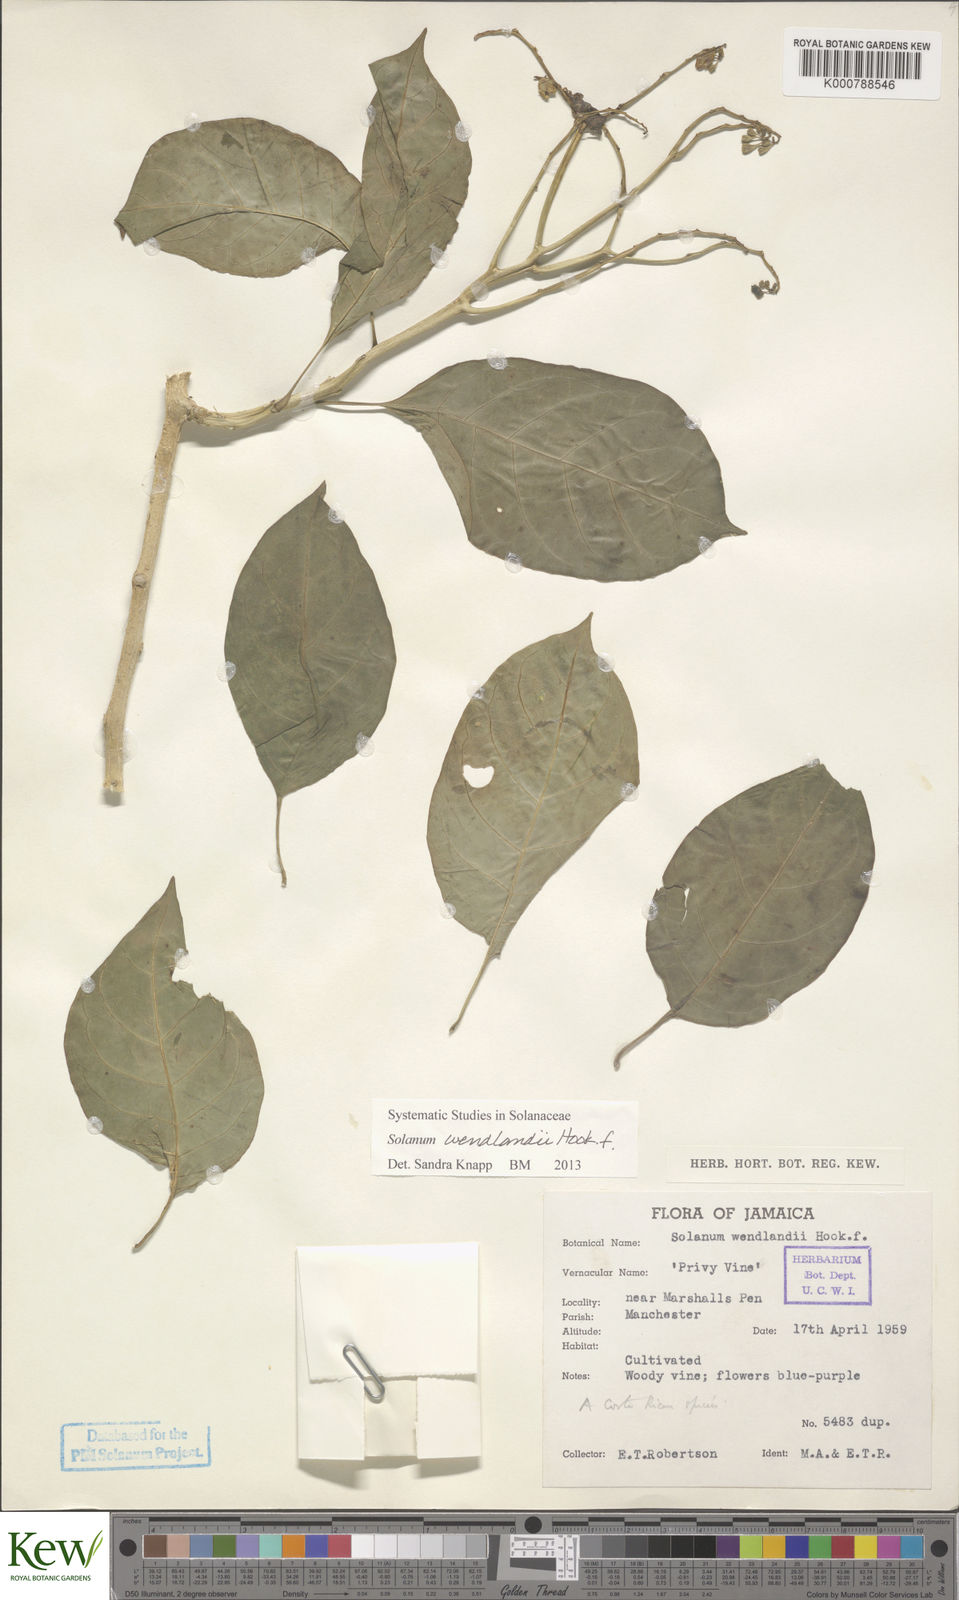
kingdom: Plantae
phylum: Tracheophyta
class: Magnoliopsida
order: Solanales
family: Solanaceae
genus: Solanum
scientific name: Solanum wendlandii
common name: Costa rican nightshade
